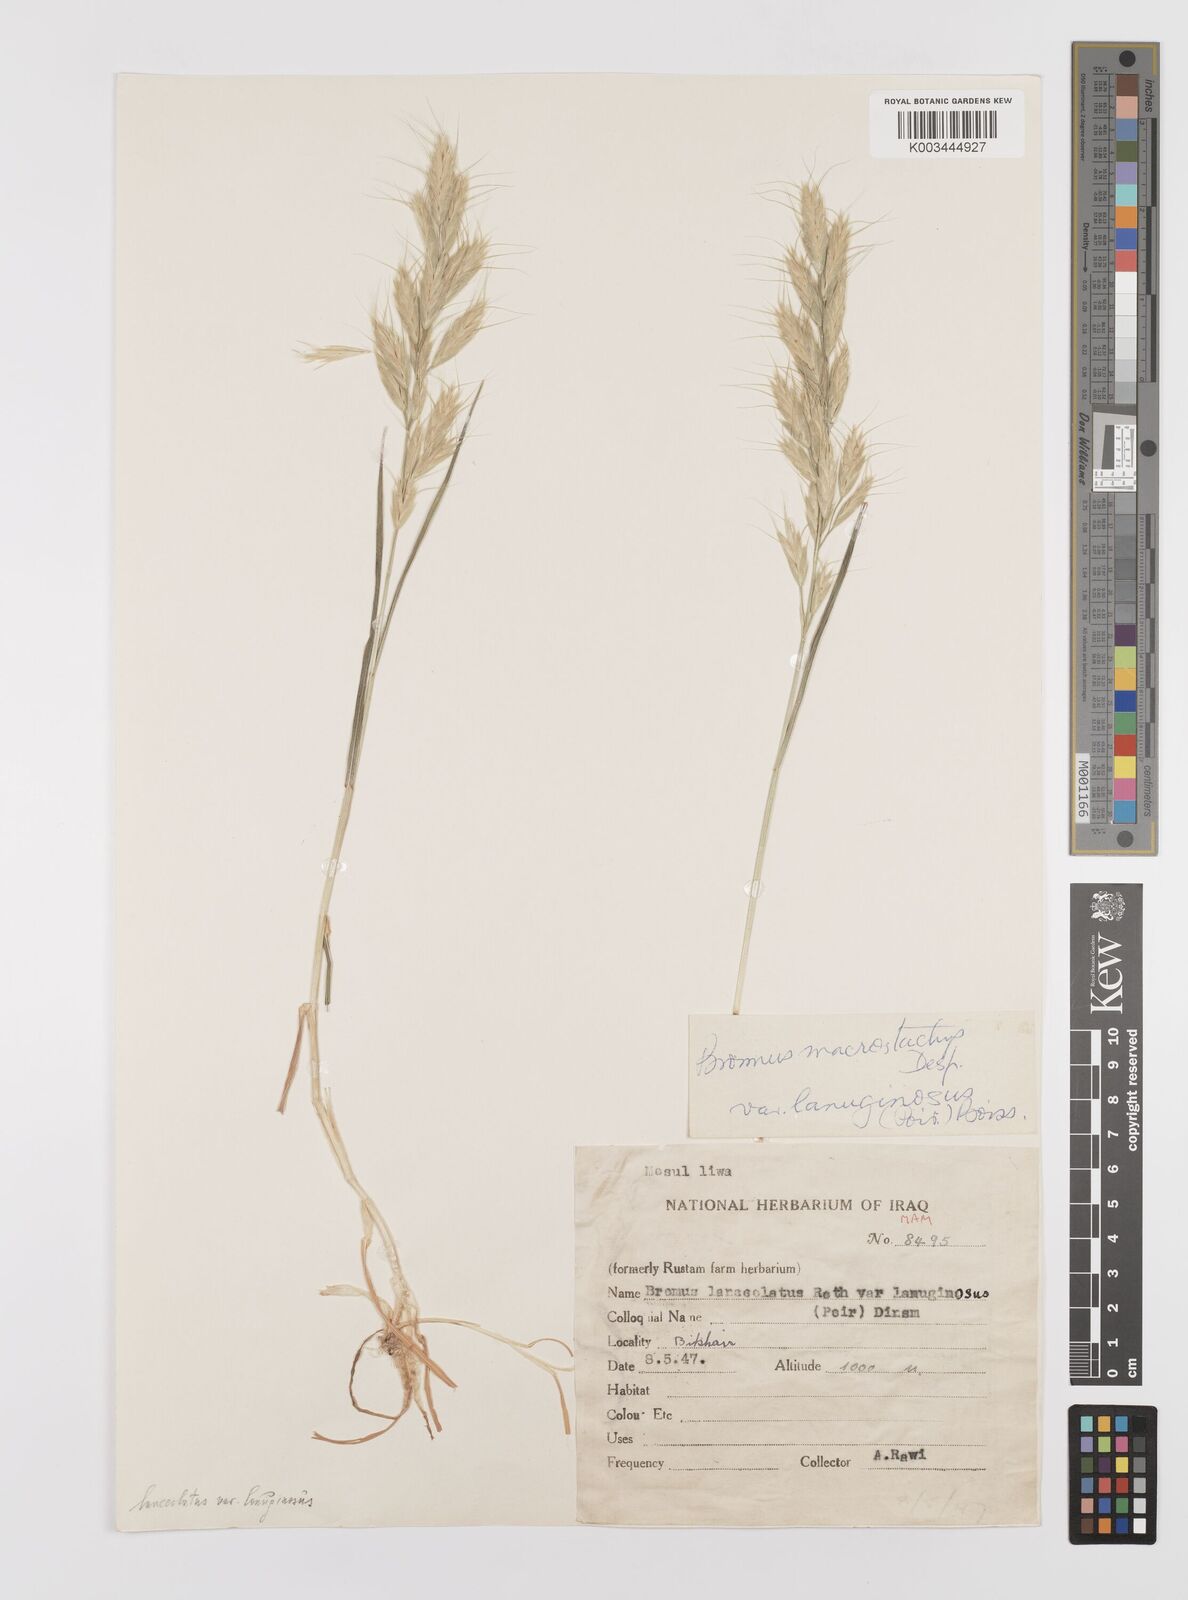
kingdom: Plantae
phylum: Tracheophyta
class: Liliopsida
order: Poales
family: Poaceae
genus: Bromus
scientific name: Bromus lanceolatus
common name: Mediterranean brome
